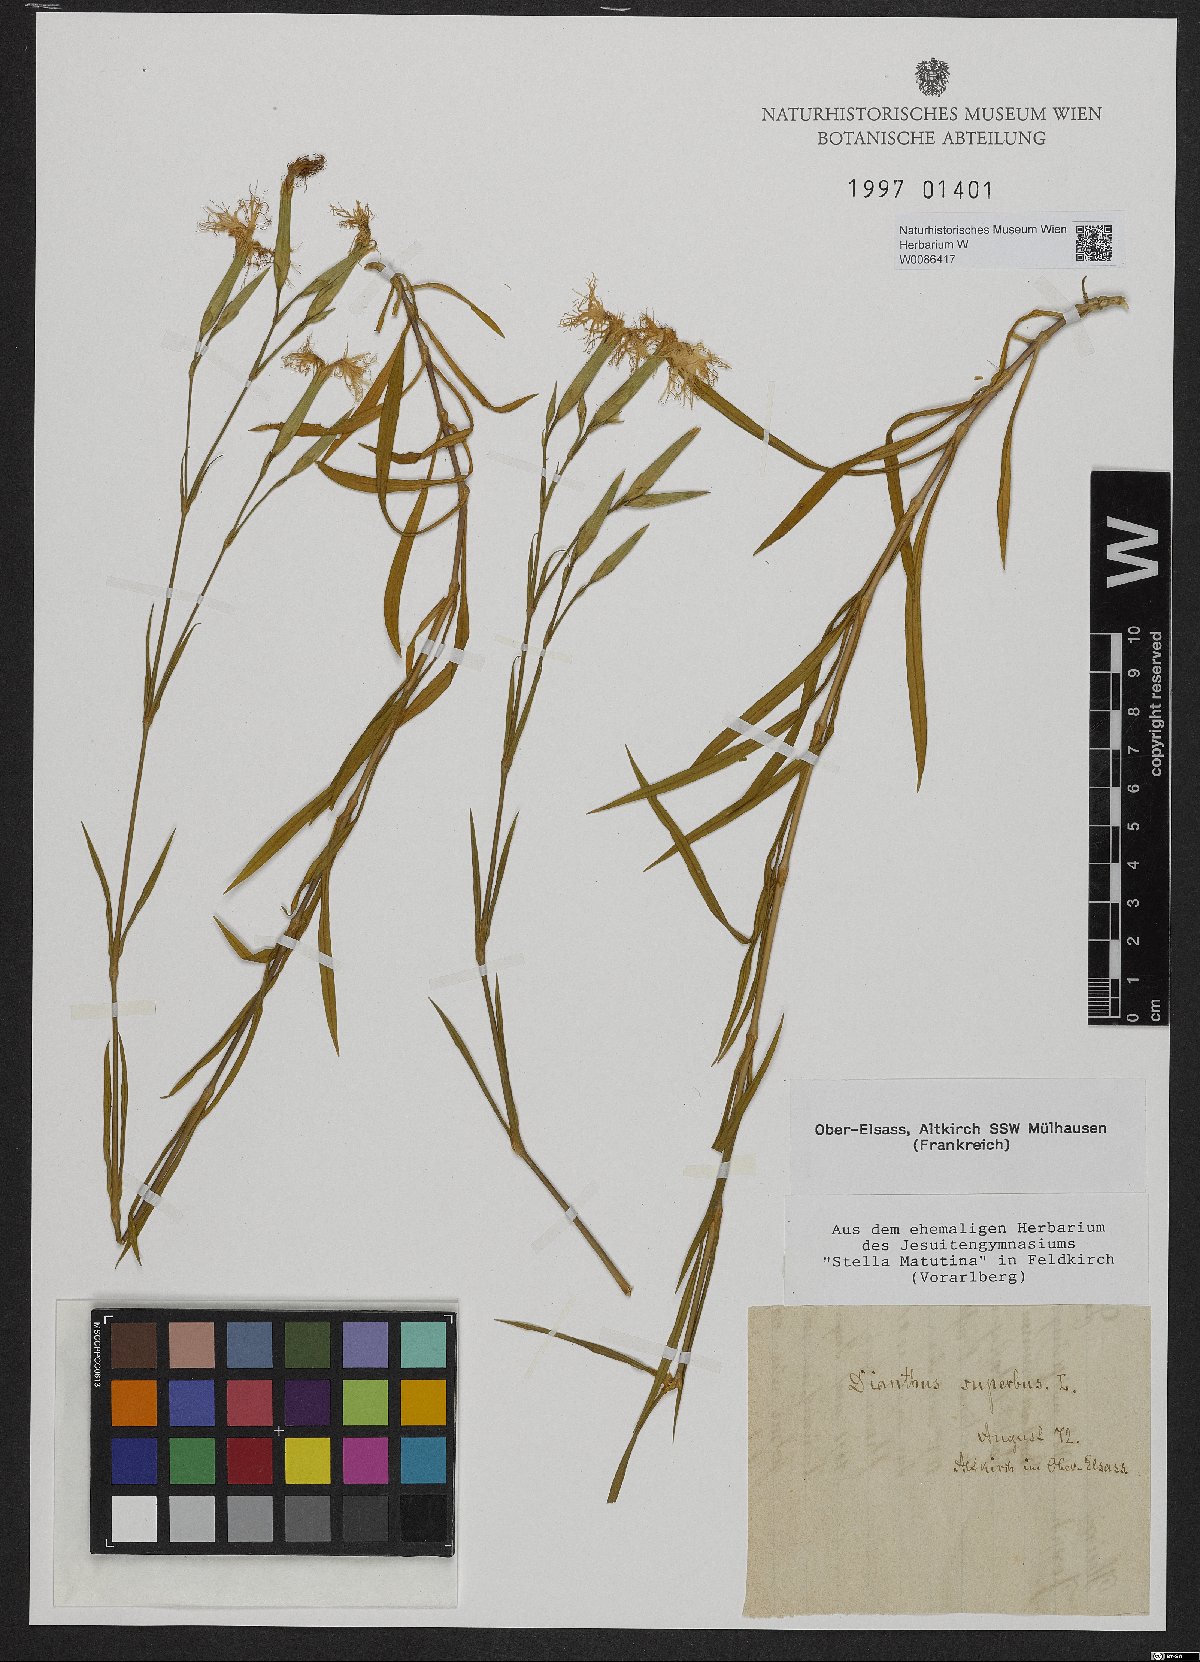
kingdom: Plantae
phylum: Tracheophyta
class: Magnoliopsida
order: Caryophyllales
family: Caryophyllaceae
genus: Dianthus
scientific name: Dianthus superbus
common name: Fringed pink
